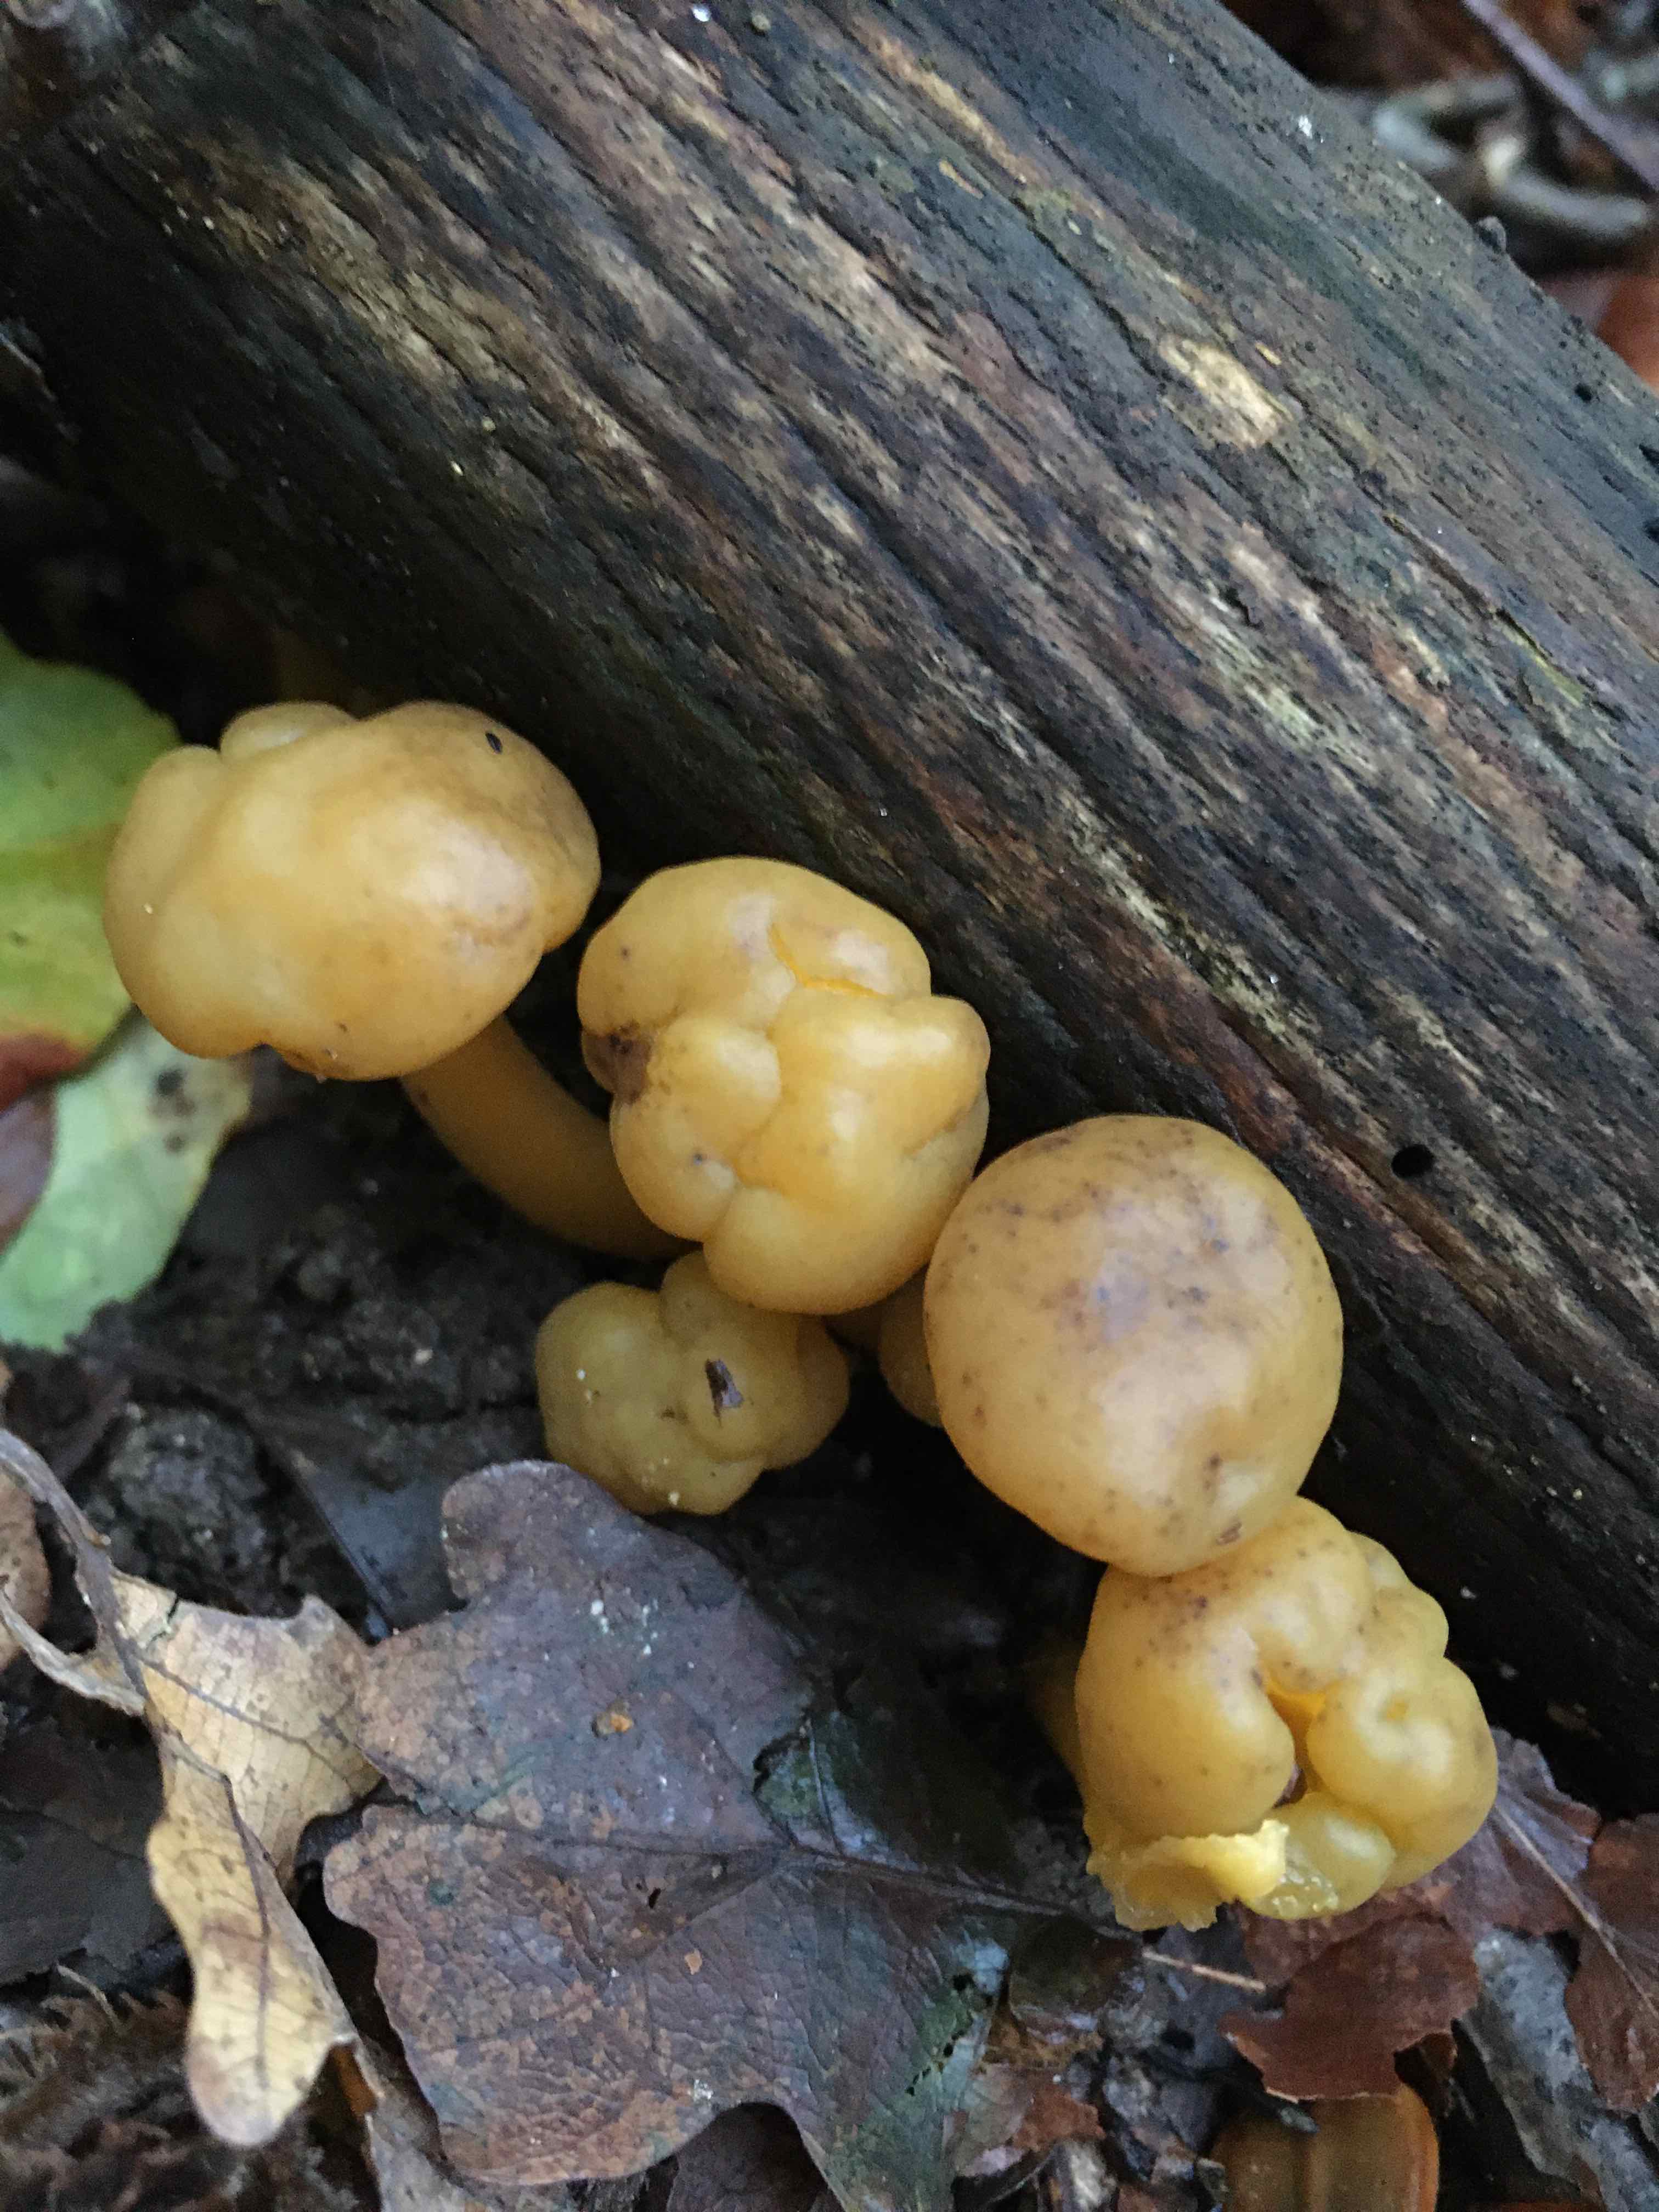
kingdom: Fungi
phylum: Ascomycota
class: Leotiomycetes
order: Leotiales
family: Leotiaceae
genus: Leotia
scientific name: Leotia lubrica
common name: ravsvamp
